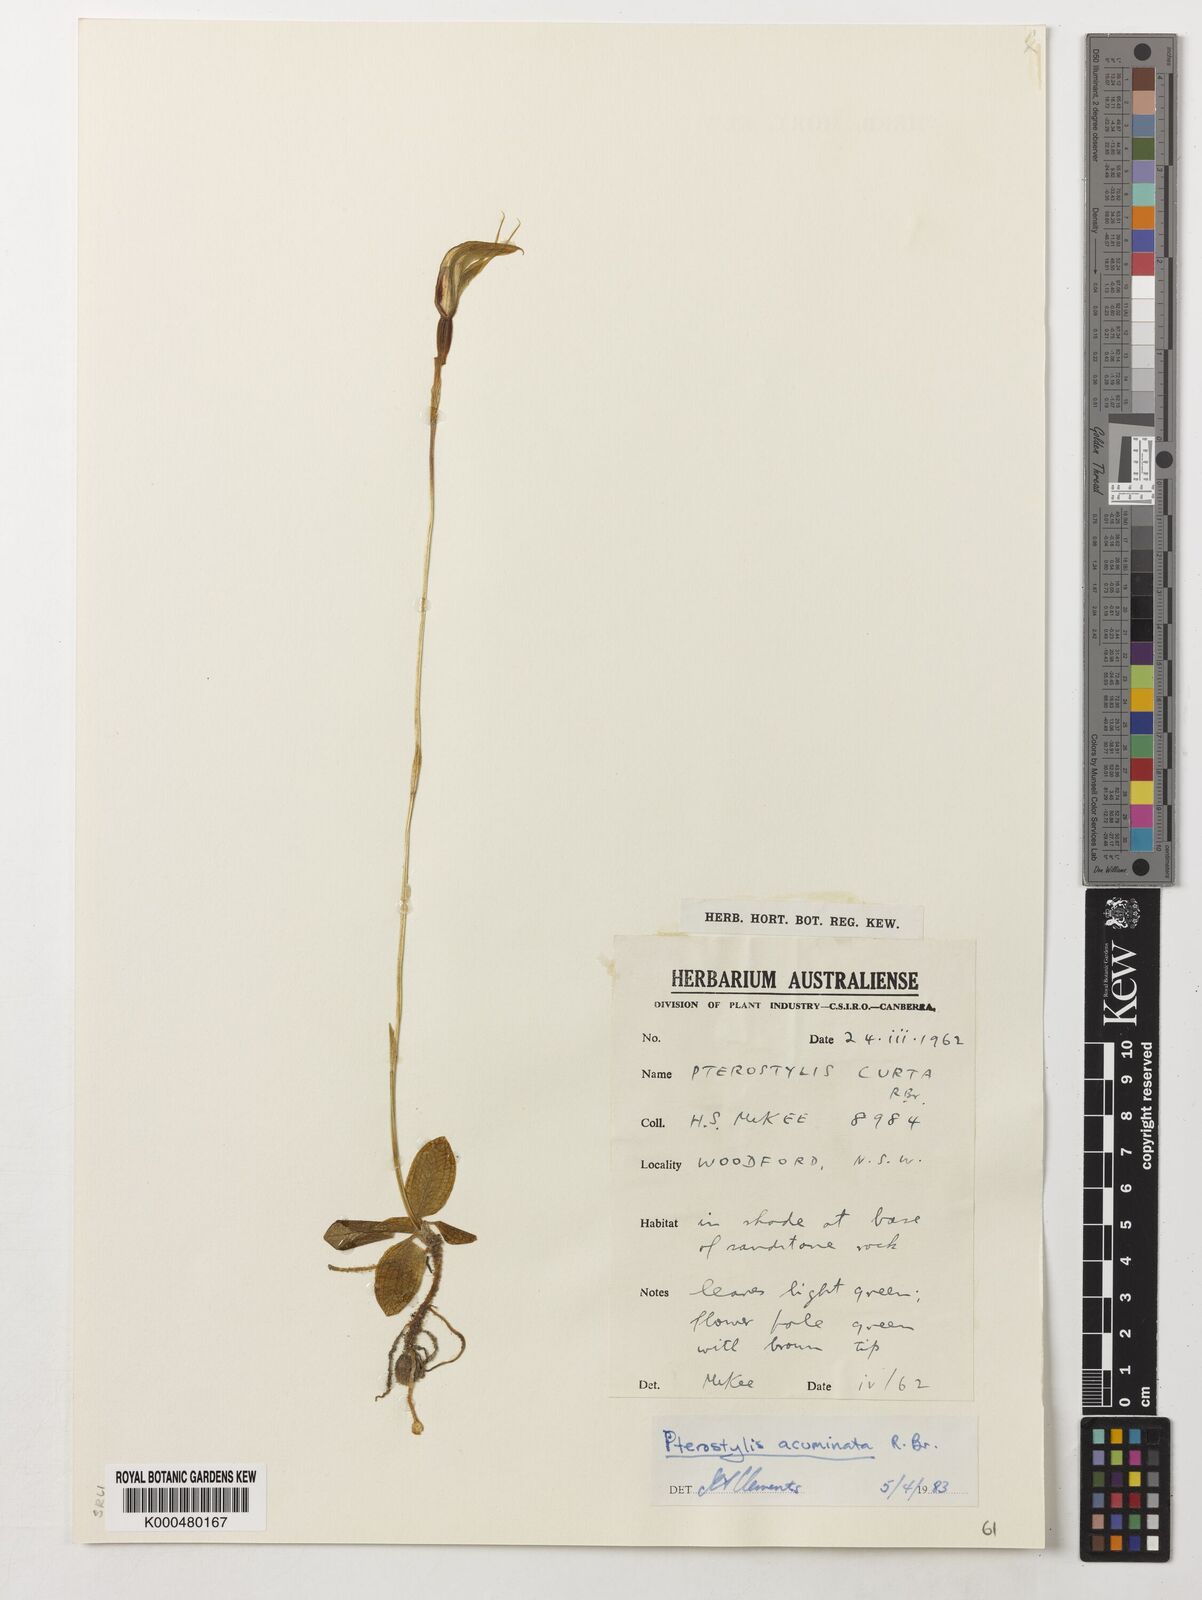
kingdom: Plantae
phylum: Tracheophyta
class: Liliopsida
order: Asparagales
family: Orchidaceae
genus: Pterostylis
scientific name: Pterostylis concinna
